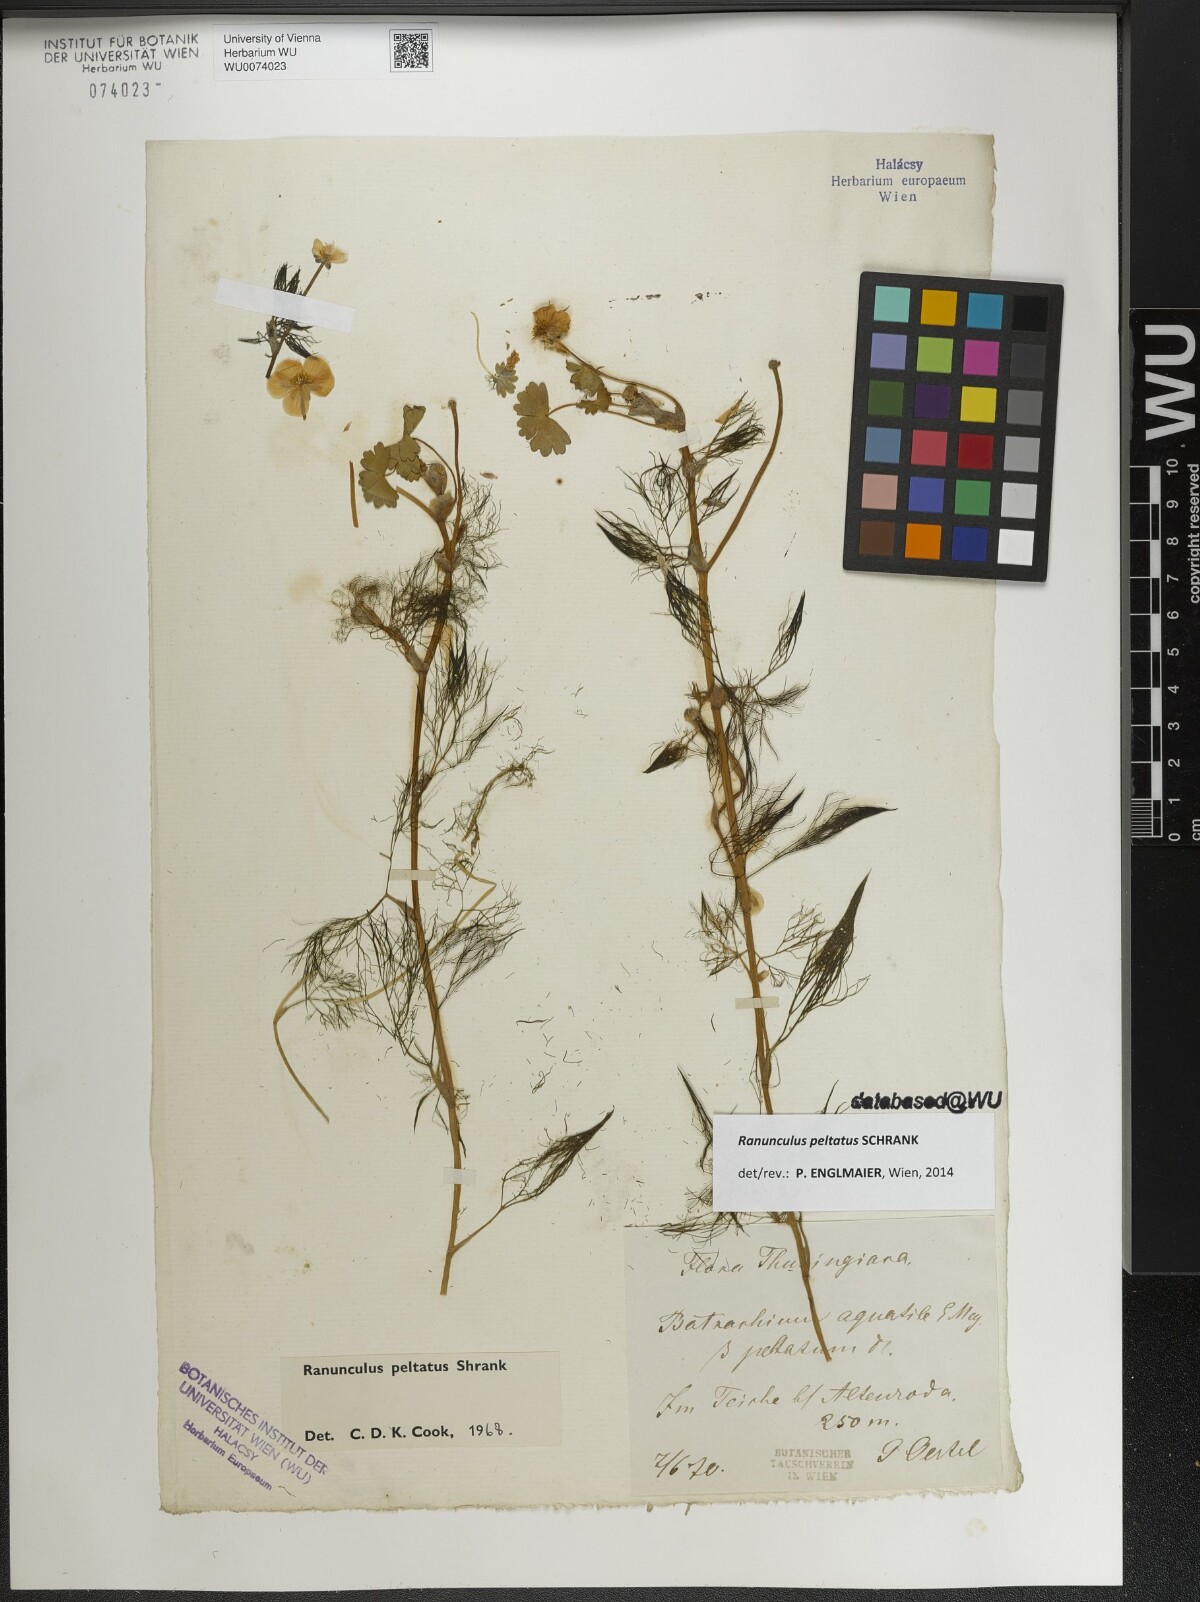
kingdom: Plantae
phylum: Tracheophyta
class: Magnoliopsida
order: Ranunculales
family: Ranunculaceae
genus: Ranunculus
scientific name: Ranunculus peltatus
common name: Pond water-crowfoot
